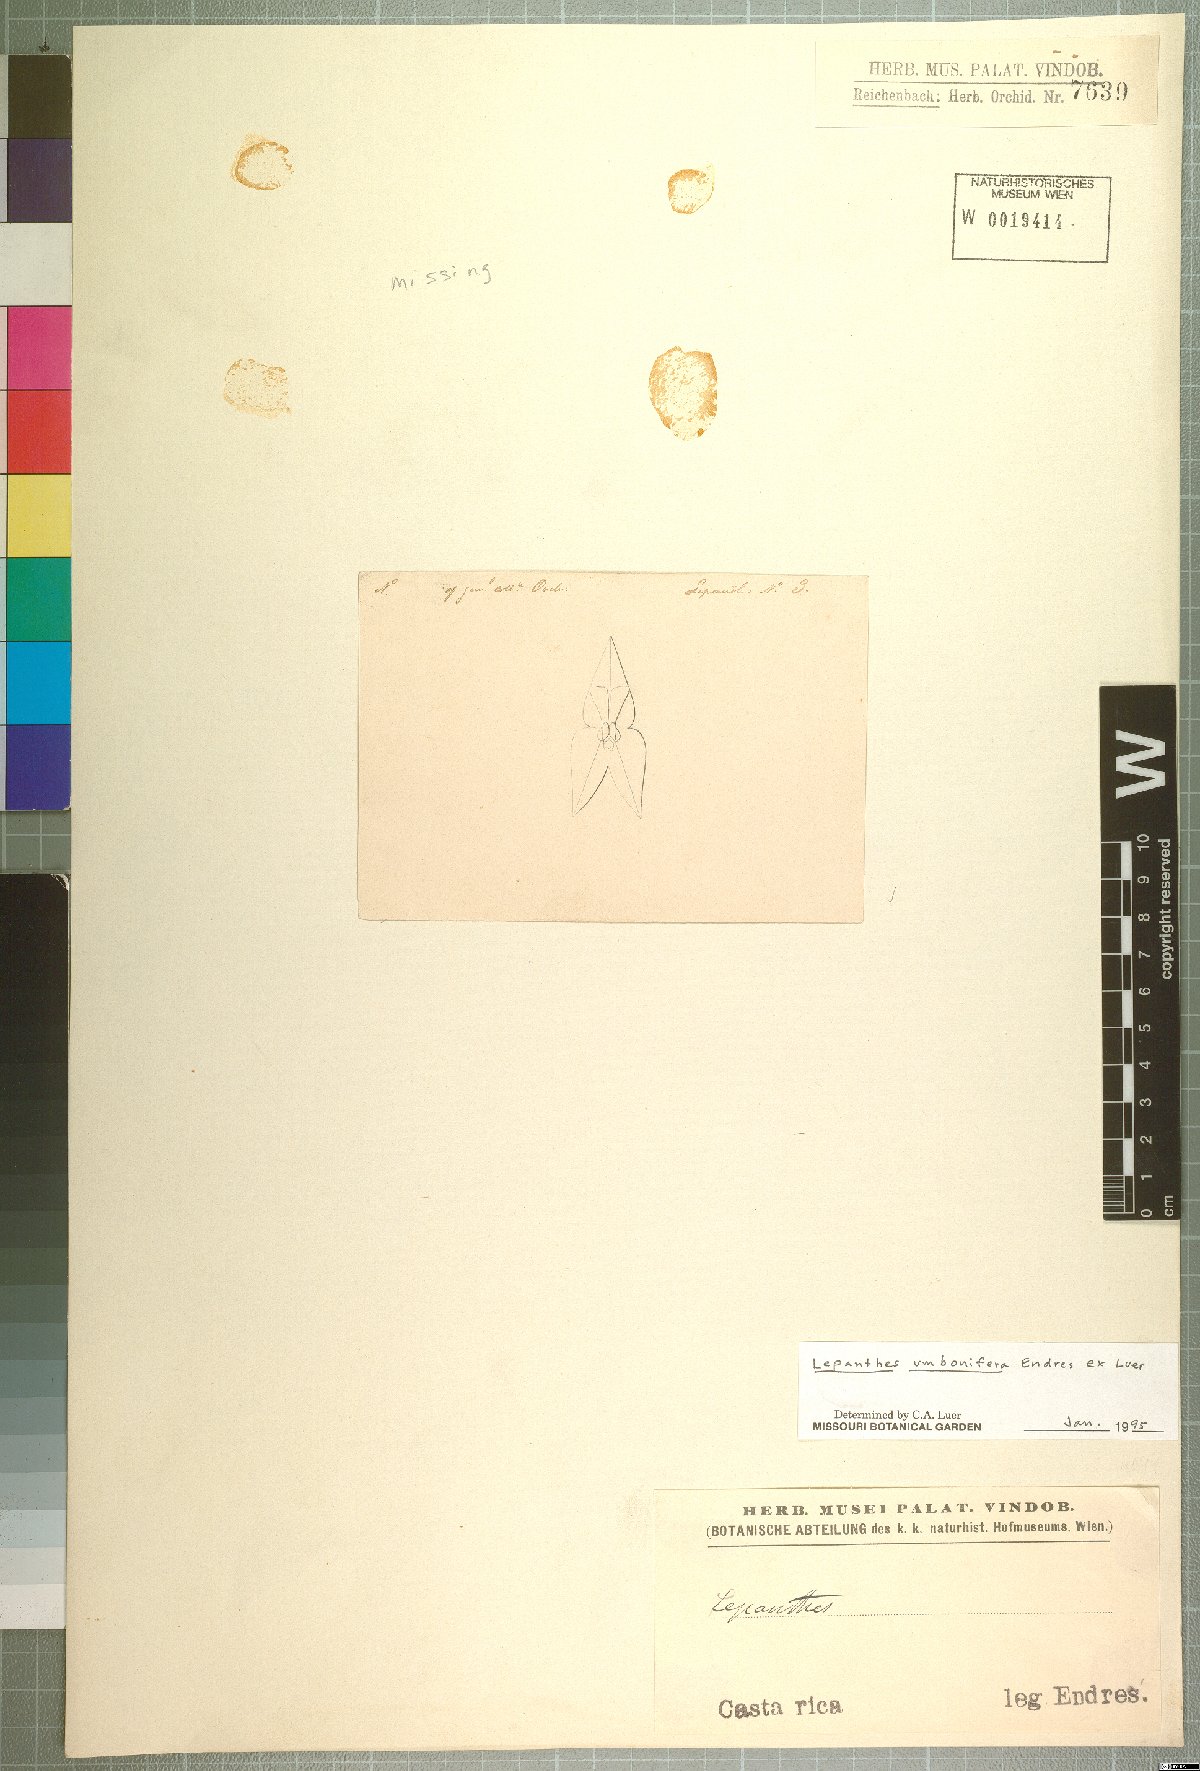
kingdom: Plantae
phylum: Tracheophyta
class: Liliopsida
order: Asparagales
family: Orchidaceae
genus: Lepanthes
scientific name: Lepanthes umbonifera
